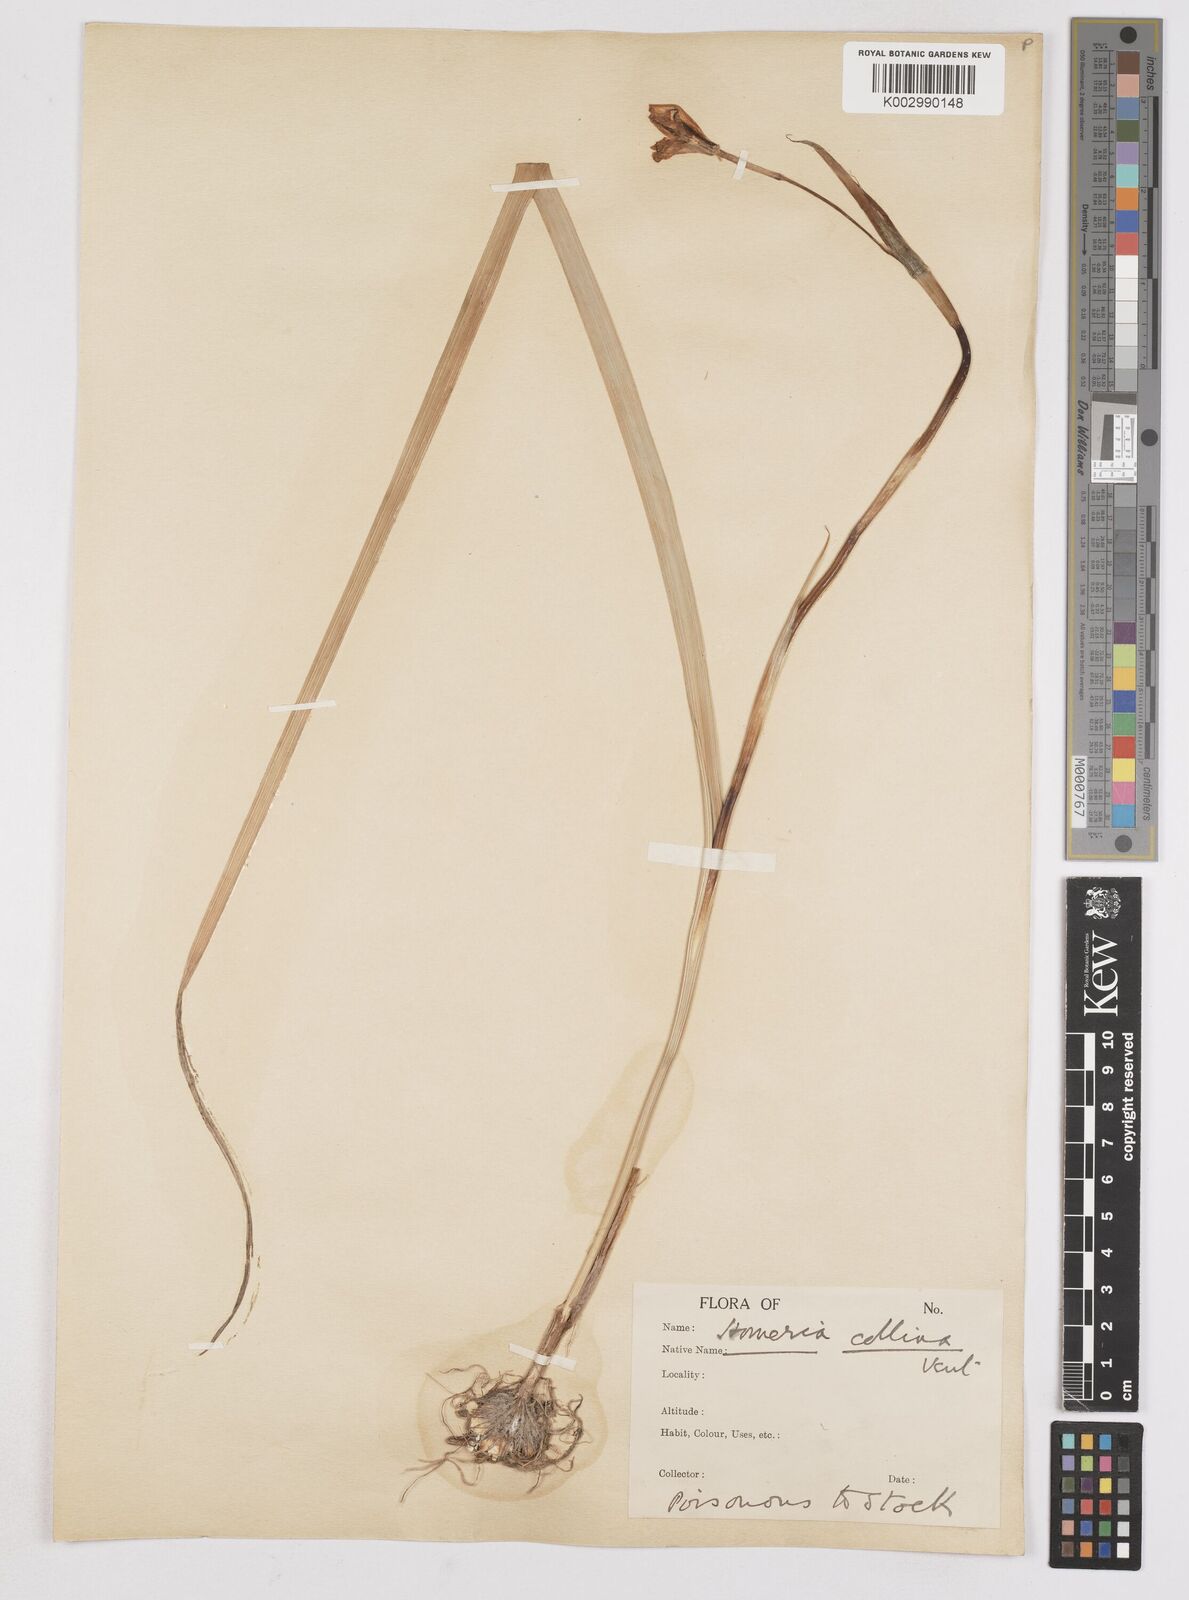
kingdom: Plantae
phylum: Tracheophyta
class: Liliopsida
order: Asparagales
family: Iridaceae
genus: Moraea
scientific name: Moraea collina
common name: Cape-tulip
